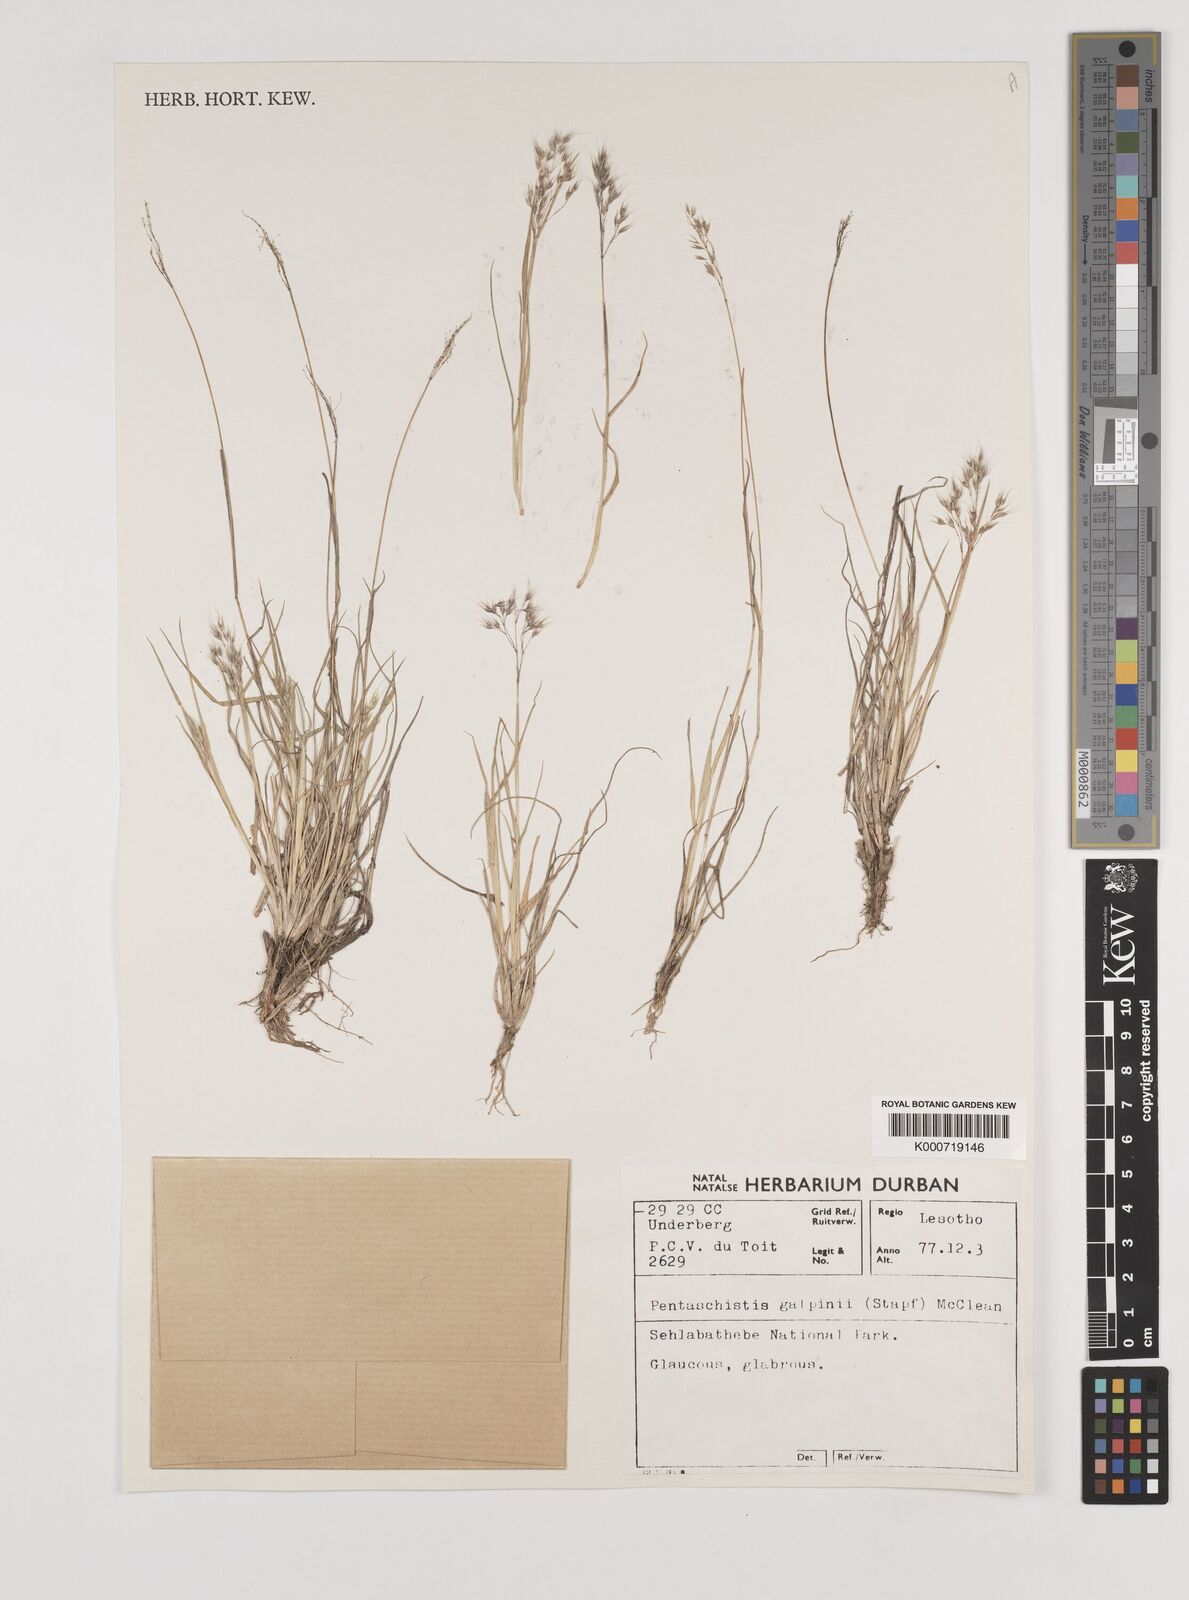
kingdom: Plantae
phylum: Tracheophyta
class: Liliopsida
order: Poales
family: Poaceae
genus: Pentameris
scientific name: Pentameris galpinii
